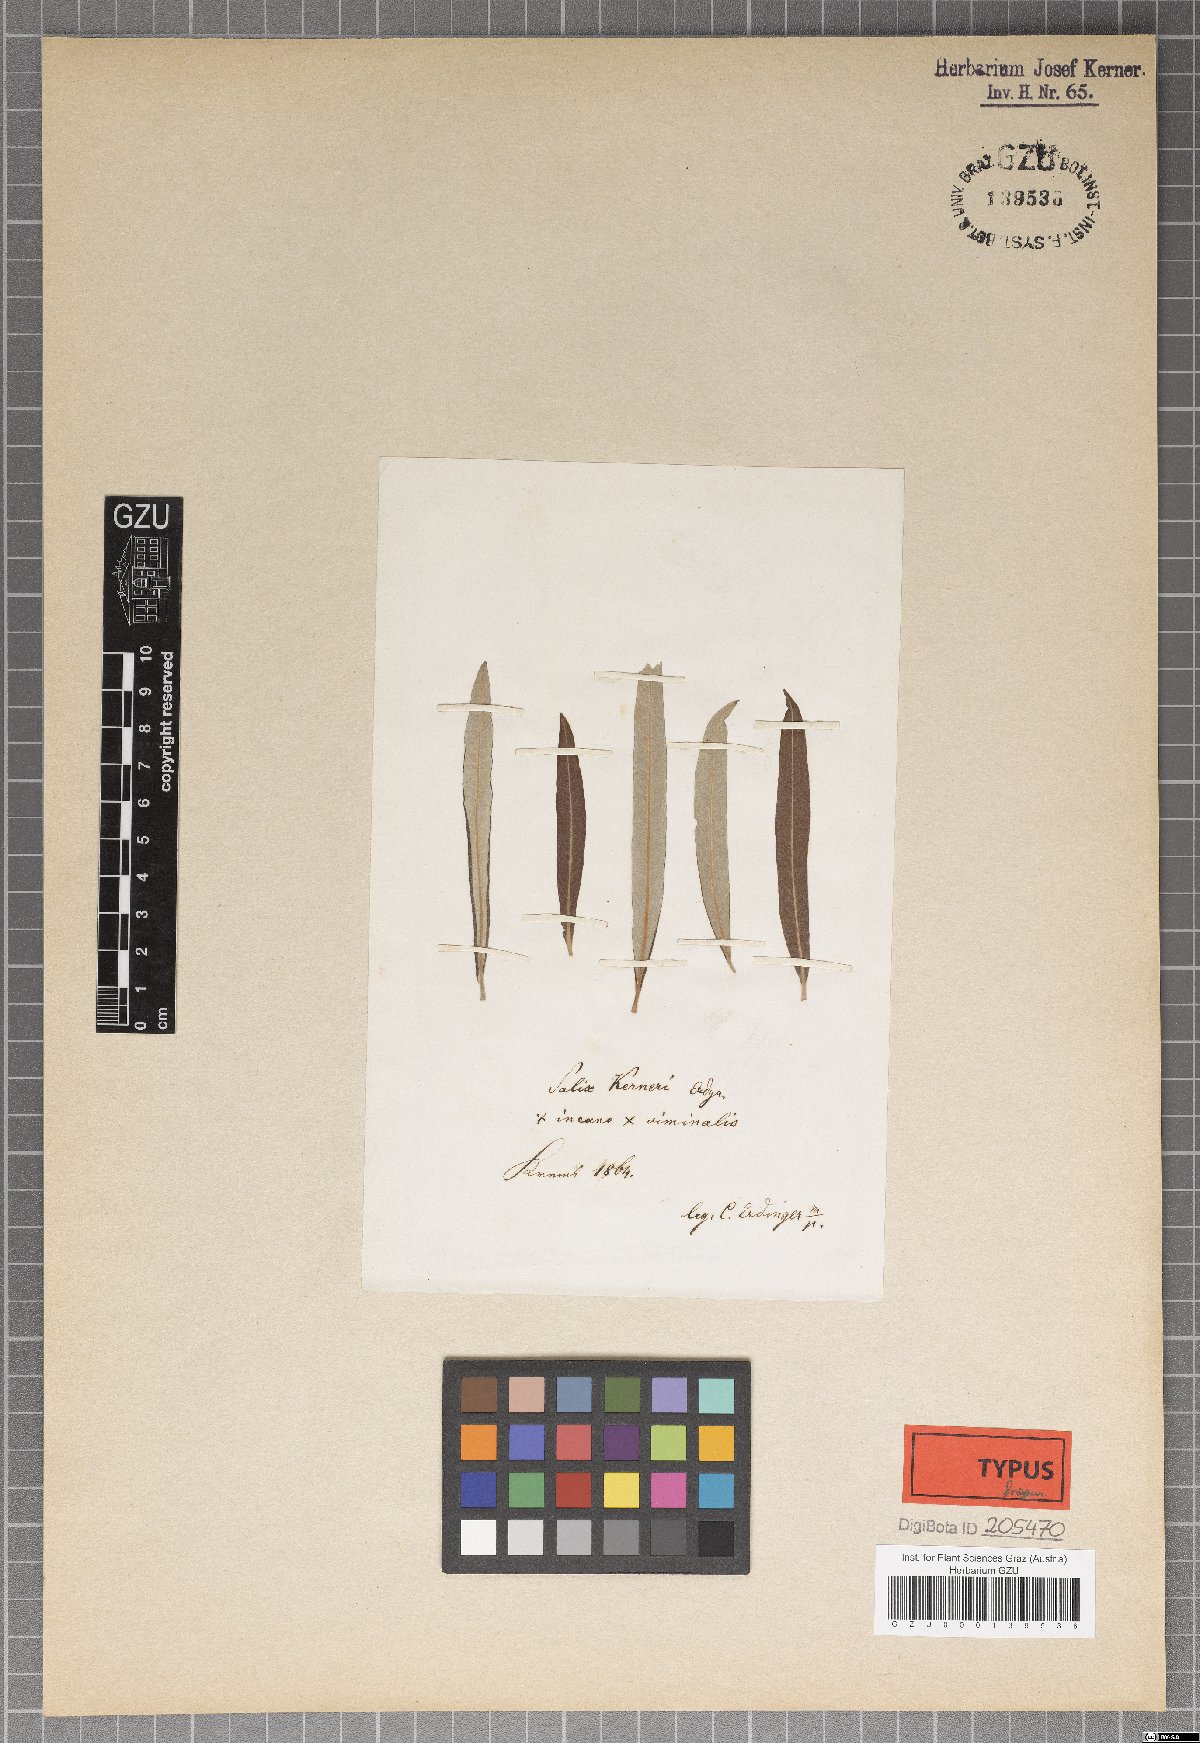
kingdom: Plantae
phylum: Tracheophyta
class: Magnoliopsida
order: Malpighiales
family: Salicaceae
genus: Salix
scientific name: Salix kerneri
